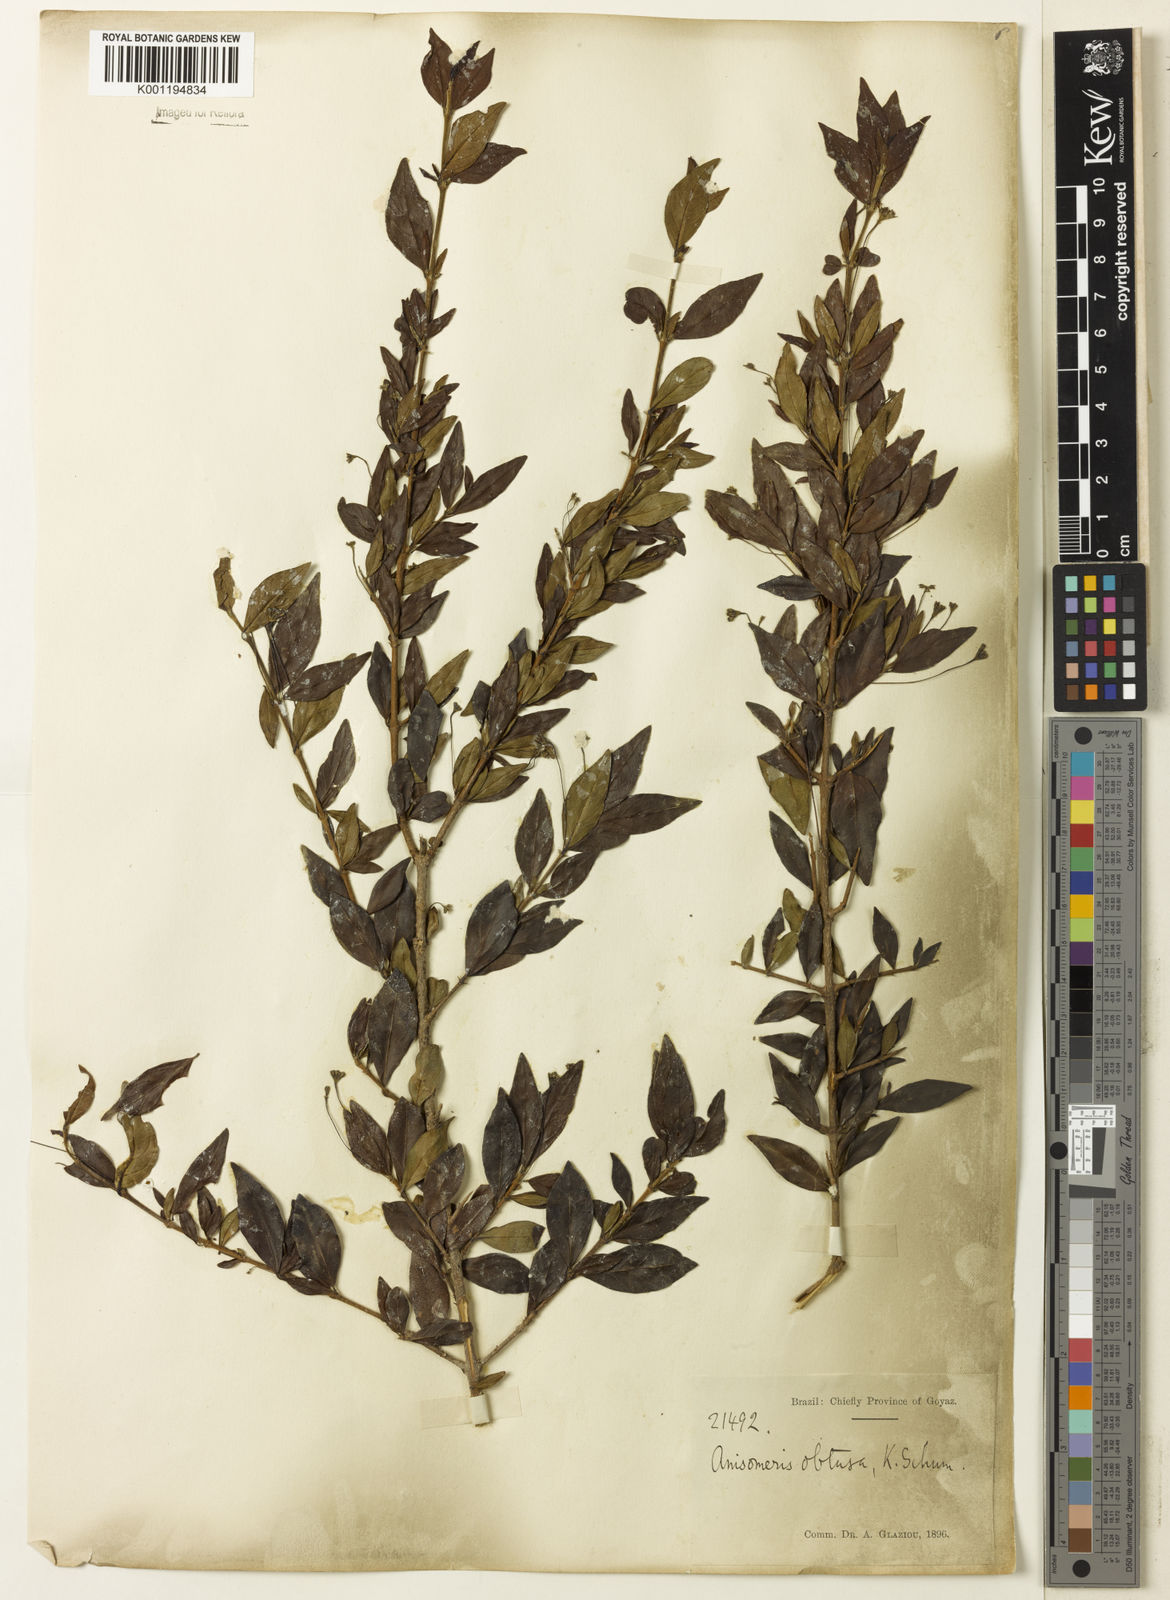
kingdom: Plantae
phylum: Tracheophyta
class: Magnoliopsida
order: Gentianales
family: Rubiaceae
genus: Chomelia
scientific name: Chomelia obtusa
